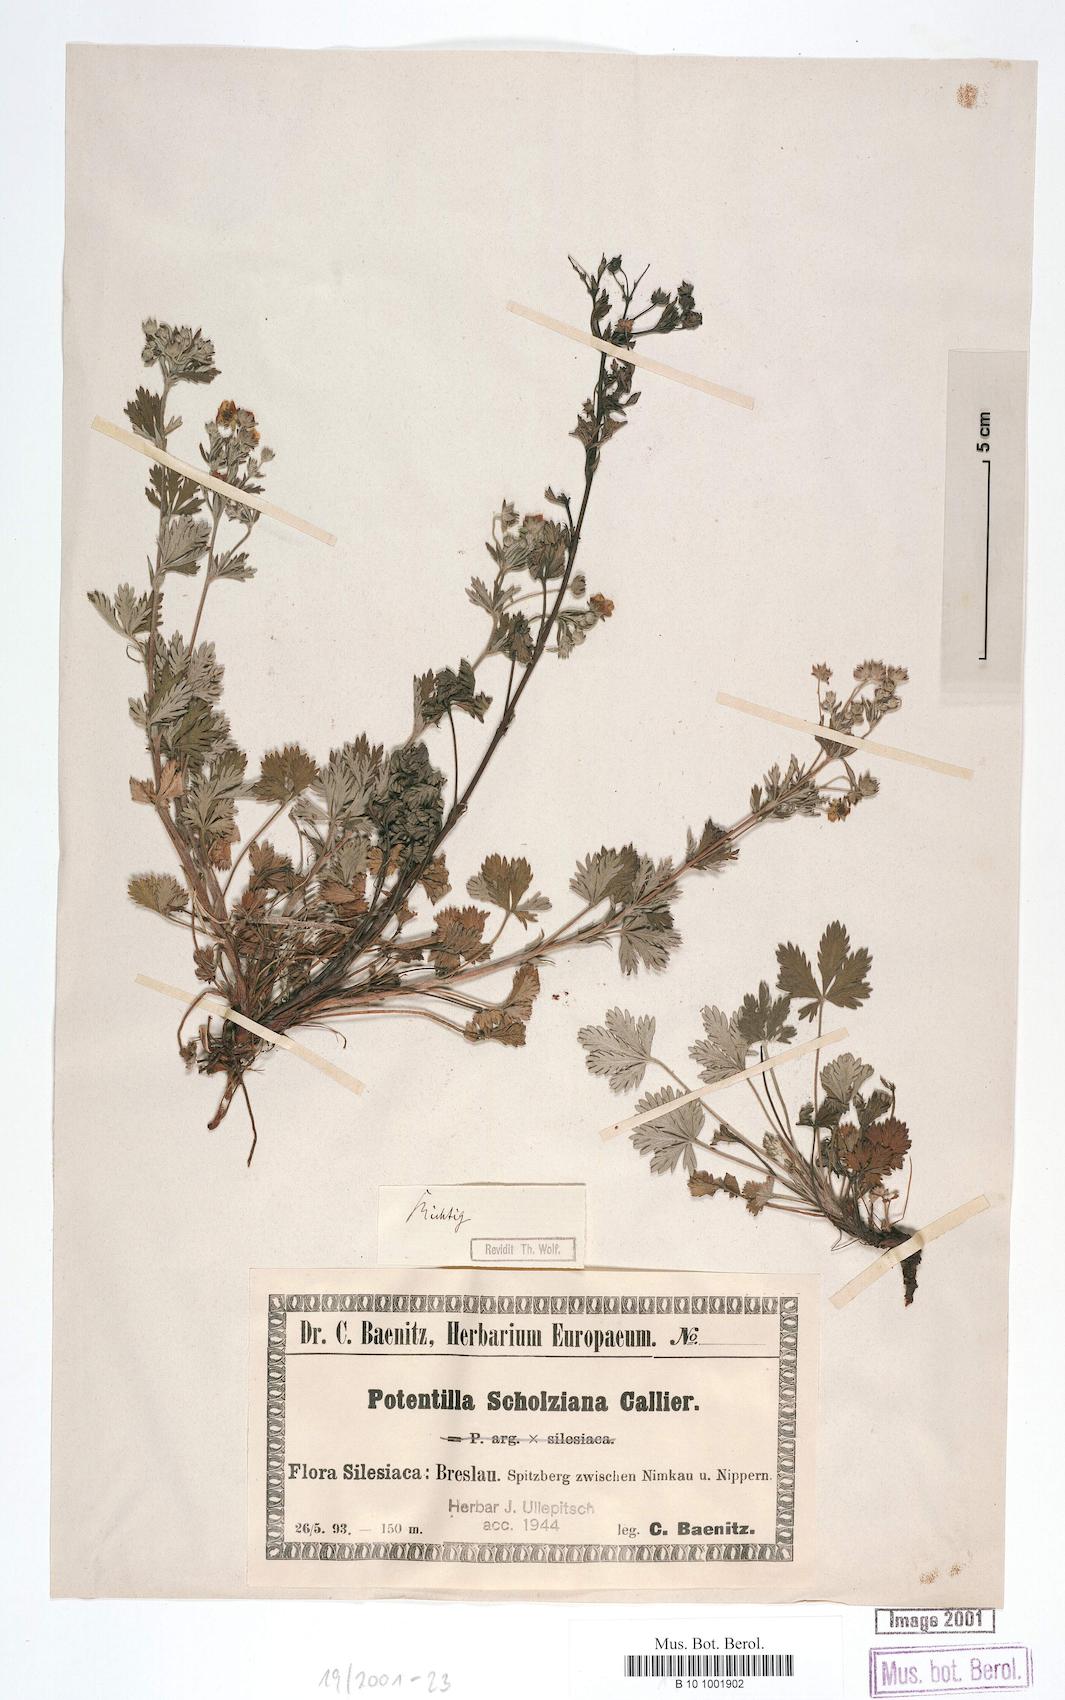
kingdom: Plantae
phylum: Tracheophyta
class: Magnoliopsida
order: Rosales
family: Rosaceae
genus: Potentilla
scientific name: Potentilla scholziana
